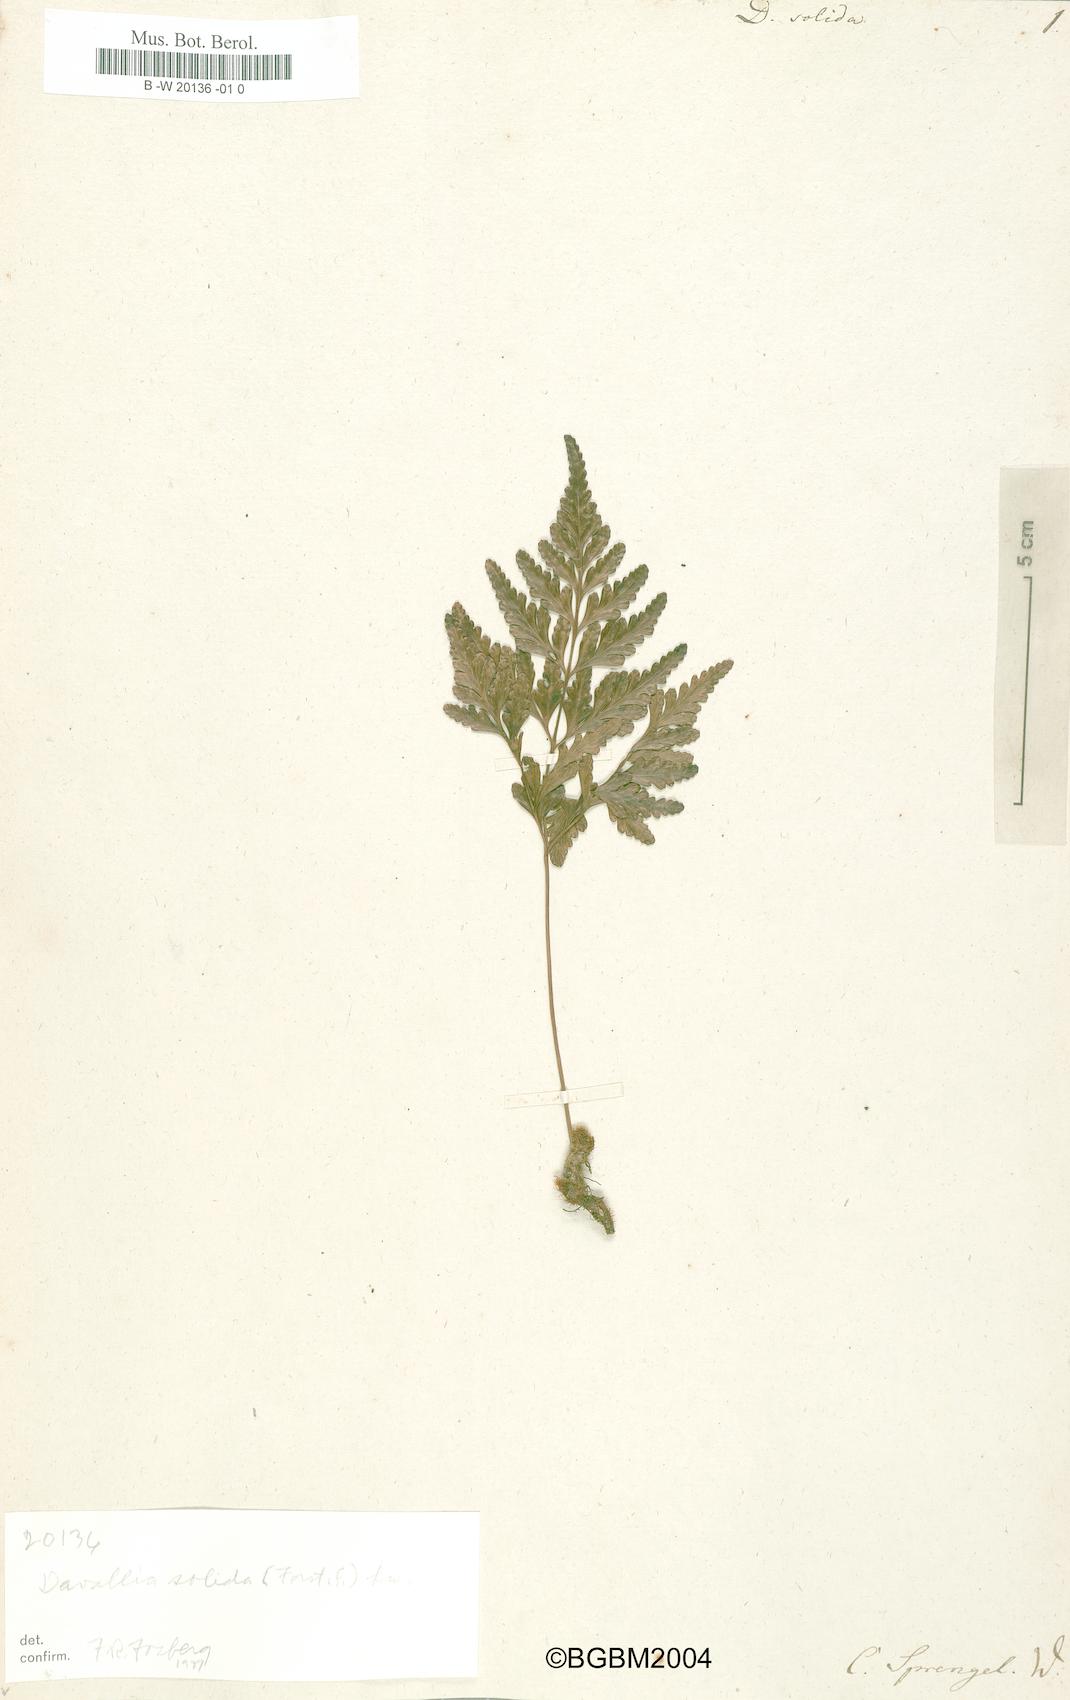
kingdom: Plantae
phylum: Tracheophyta
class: Polypodiopsida
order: Polypodiales
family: Davalliaceae
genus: Davallia
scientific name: Davallia solida
